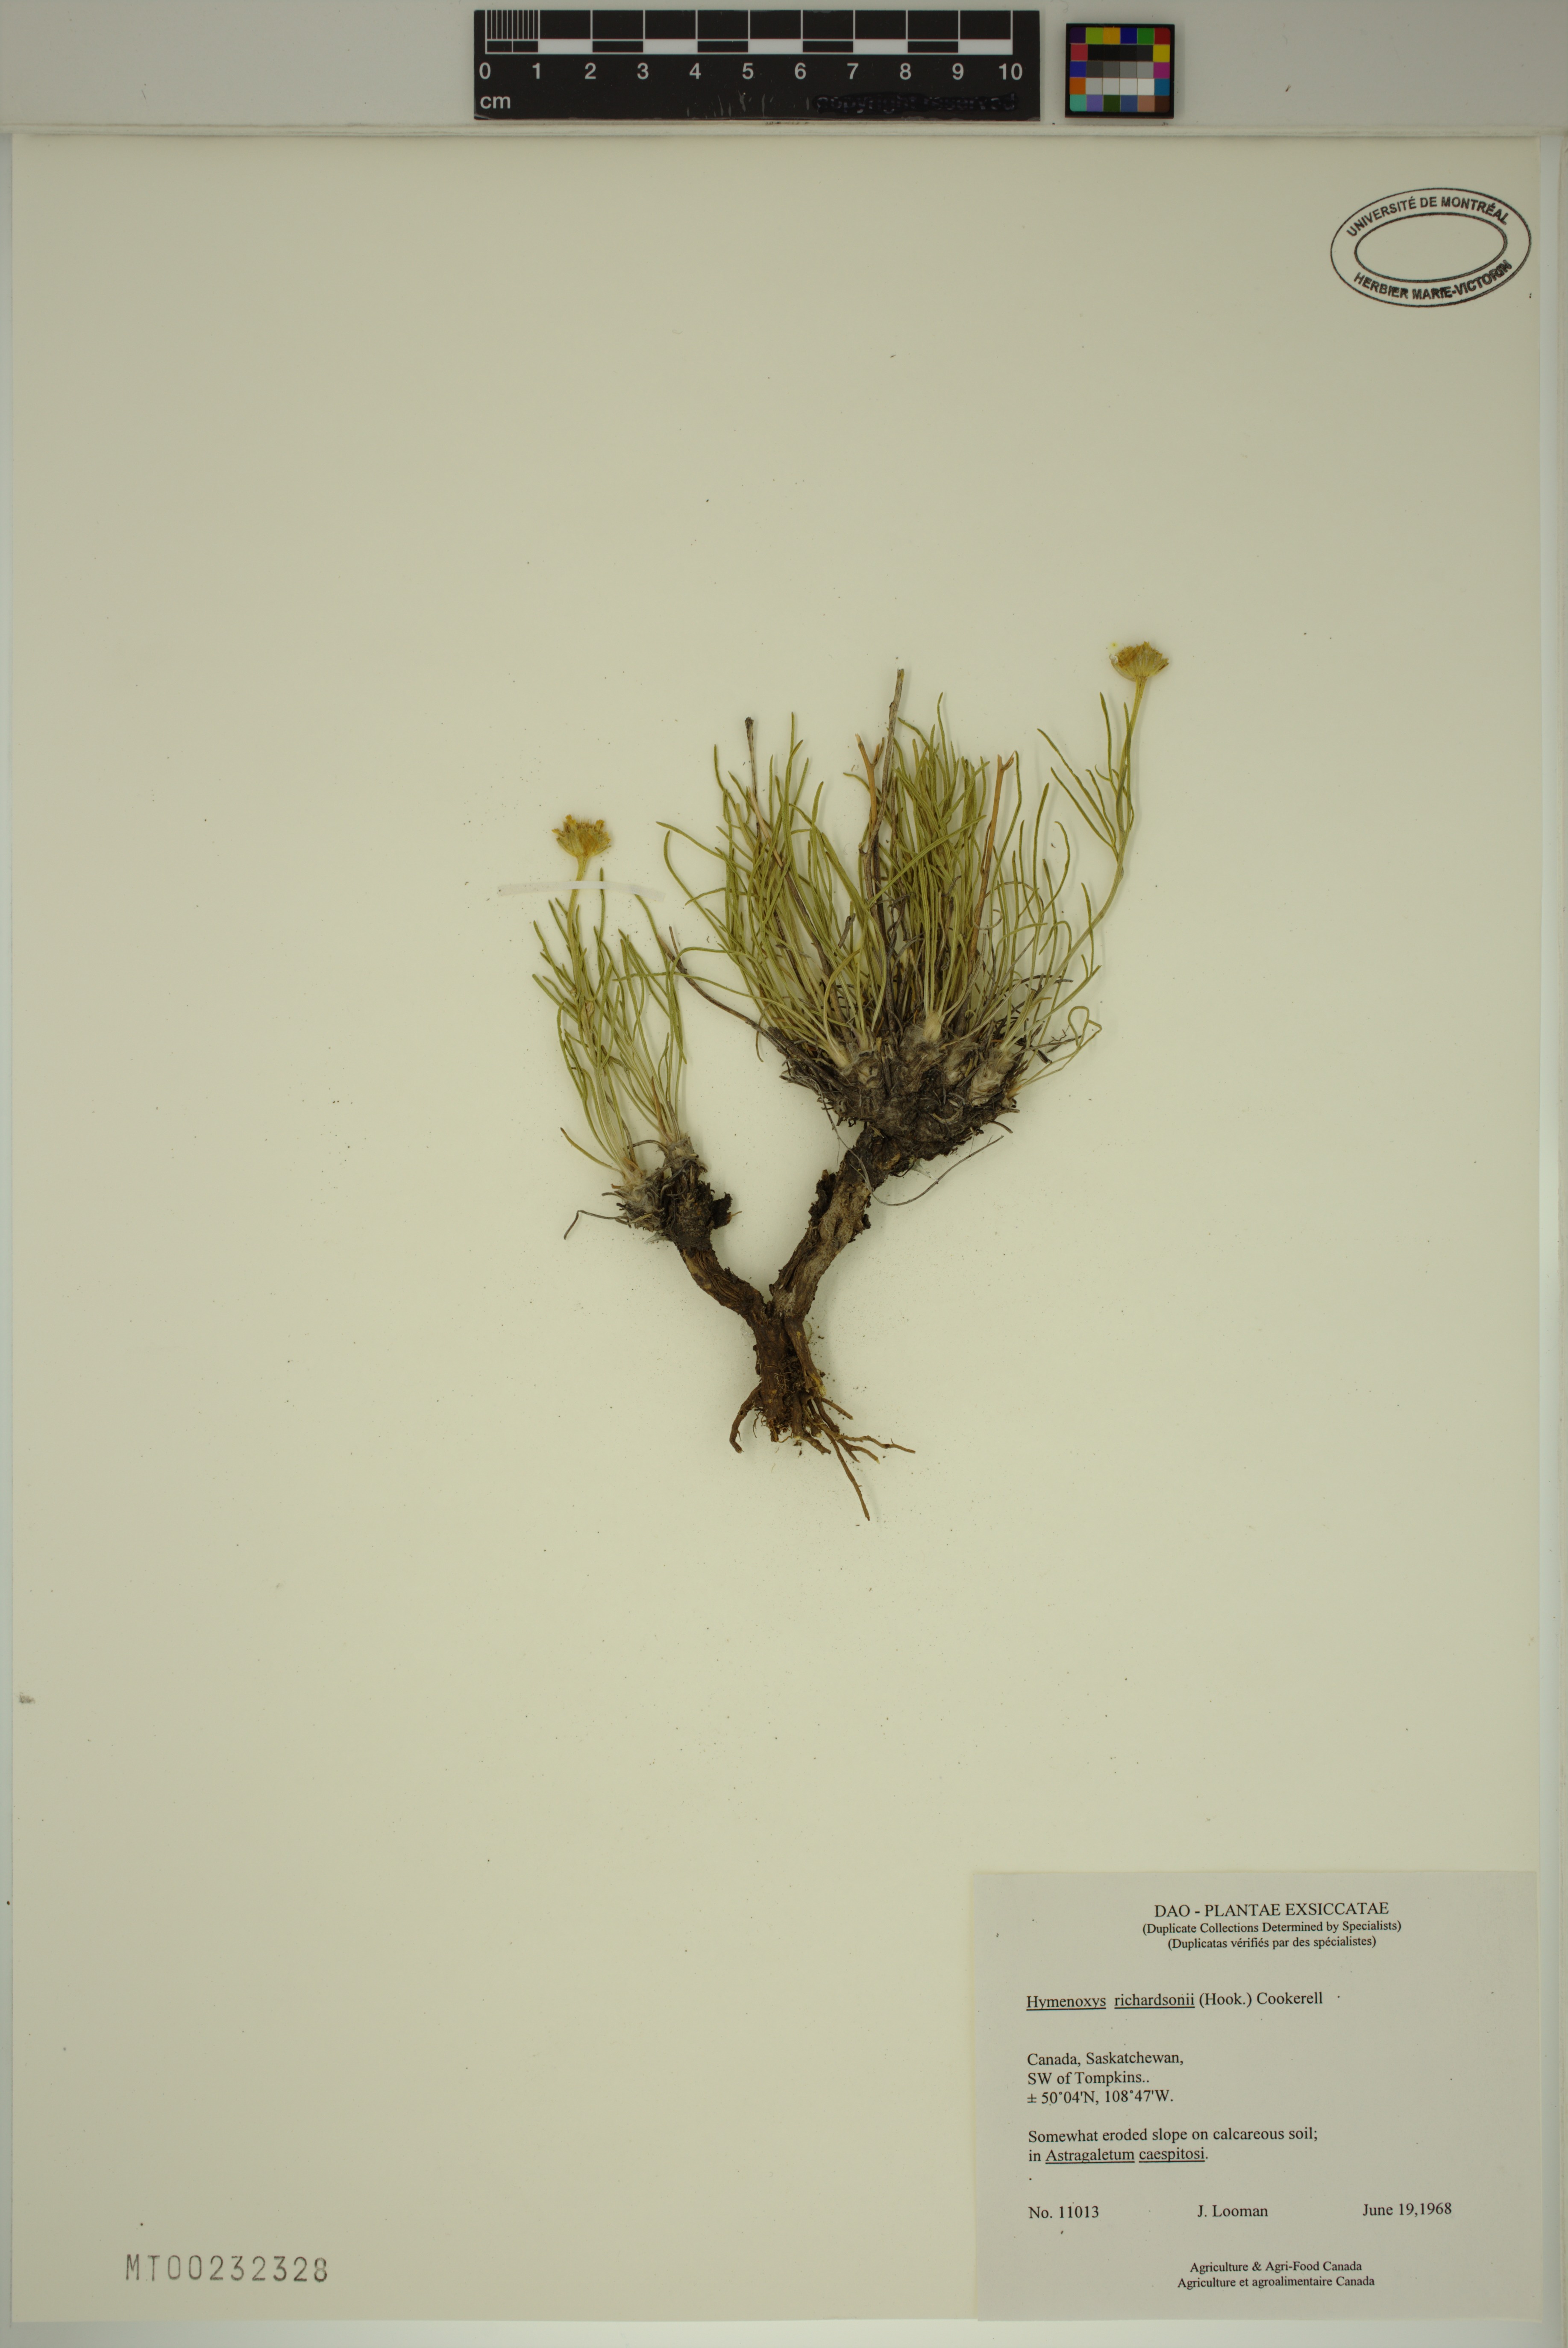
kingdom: Plantae
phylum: Tracheophyta
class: Magnoliopsida
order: Asterales
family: Asteraceae
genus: Hymenoxys
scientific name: Hymenoxys richardsonii
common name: Pingue rubberweed
